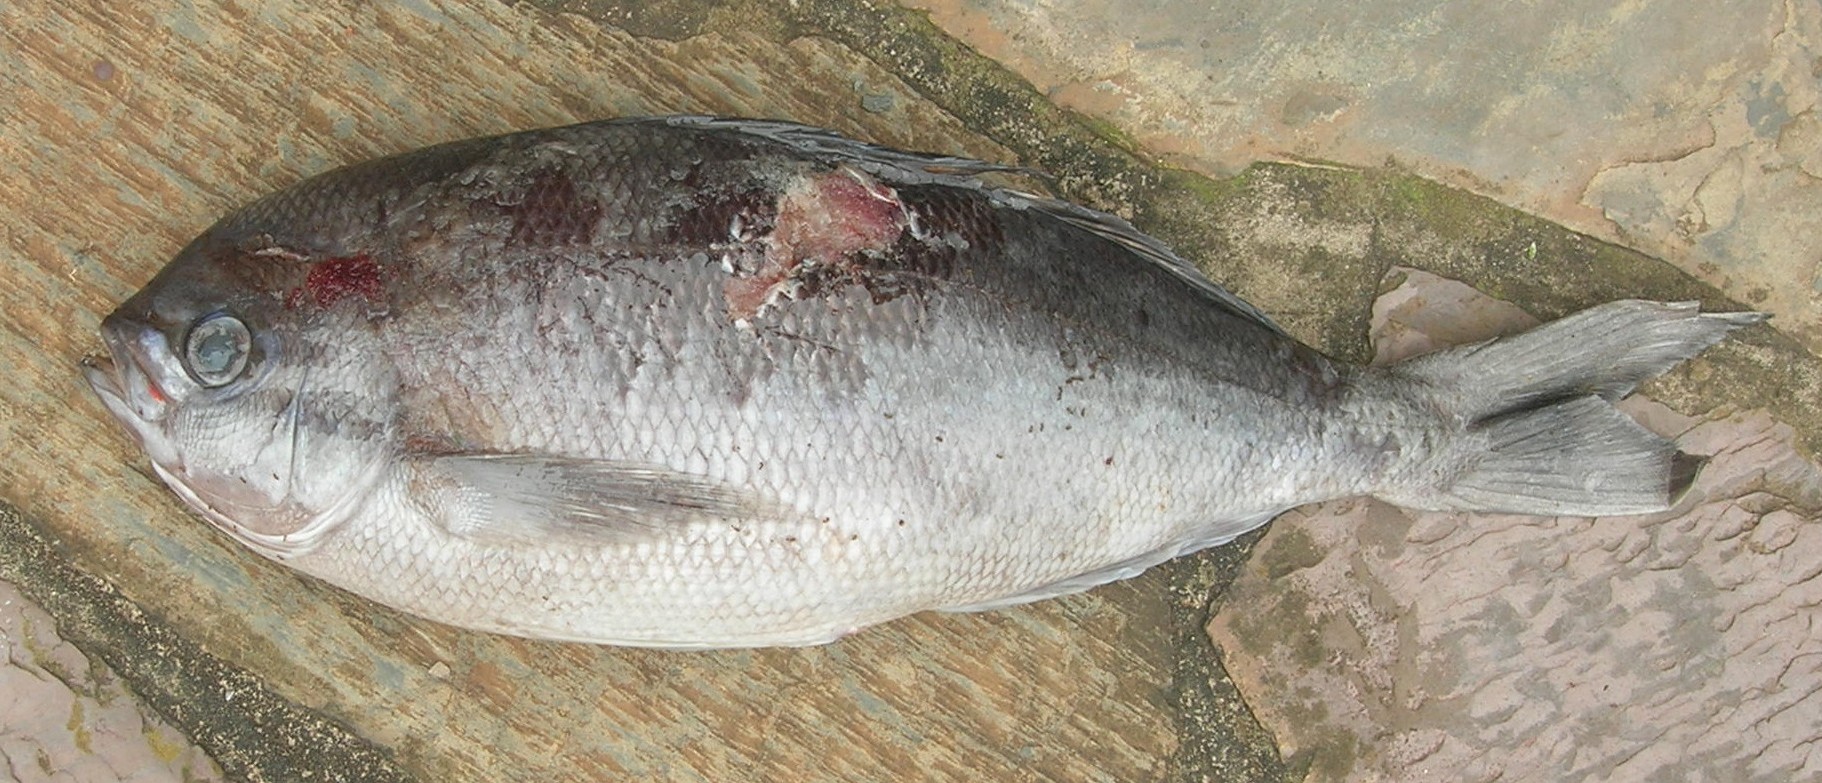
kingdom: Animalia
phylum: Chordata
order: Perciformes
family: Lutjanidae
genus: Paracaesio
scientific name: Paracaesio sordida
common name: Blue snapper
